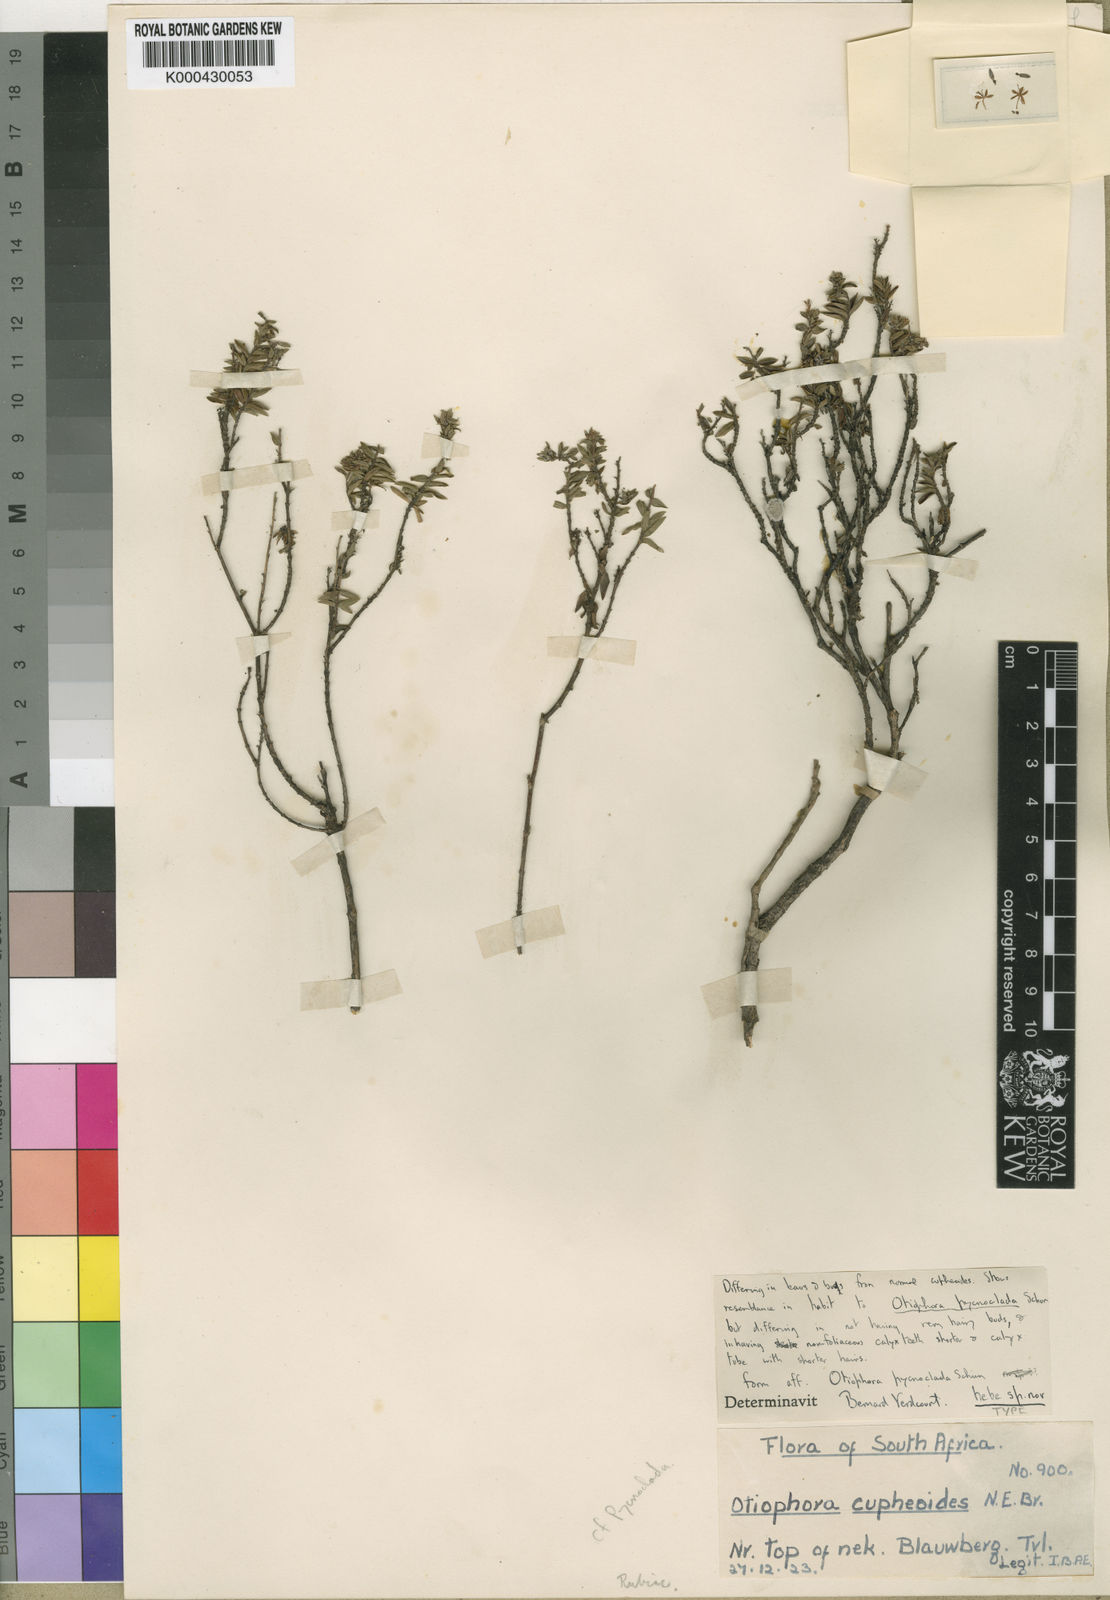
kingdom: Plantae
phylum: Tracheophyta
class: Magnoliopsida
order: Gentianales
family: Rubiaceae
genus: Otiophora
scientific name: Otiophora calycophylla
